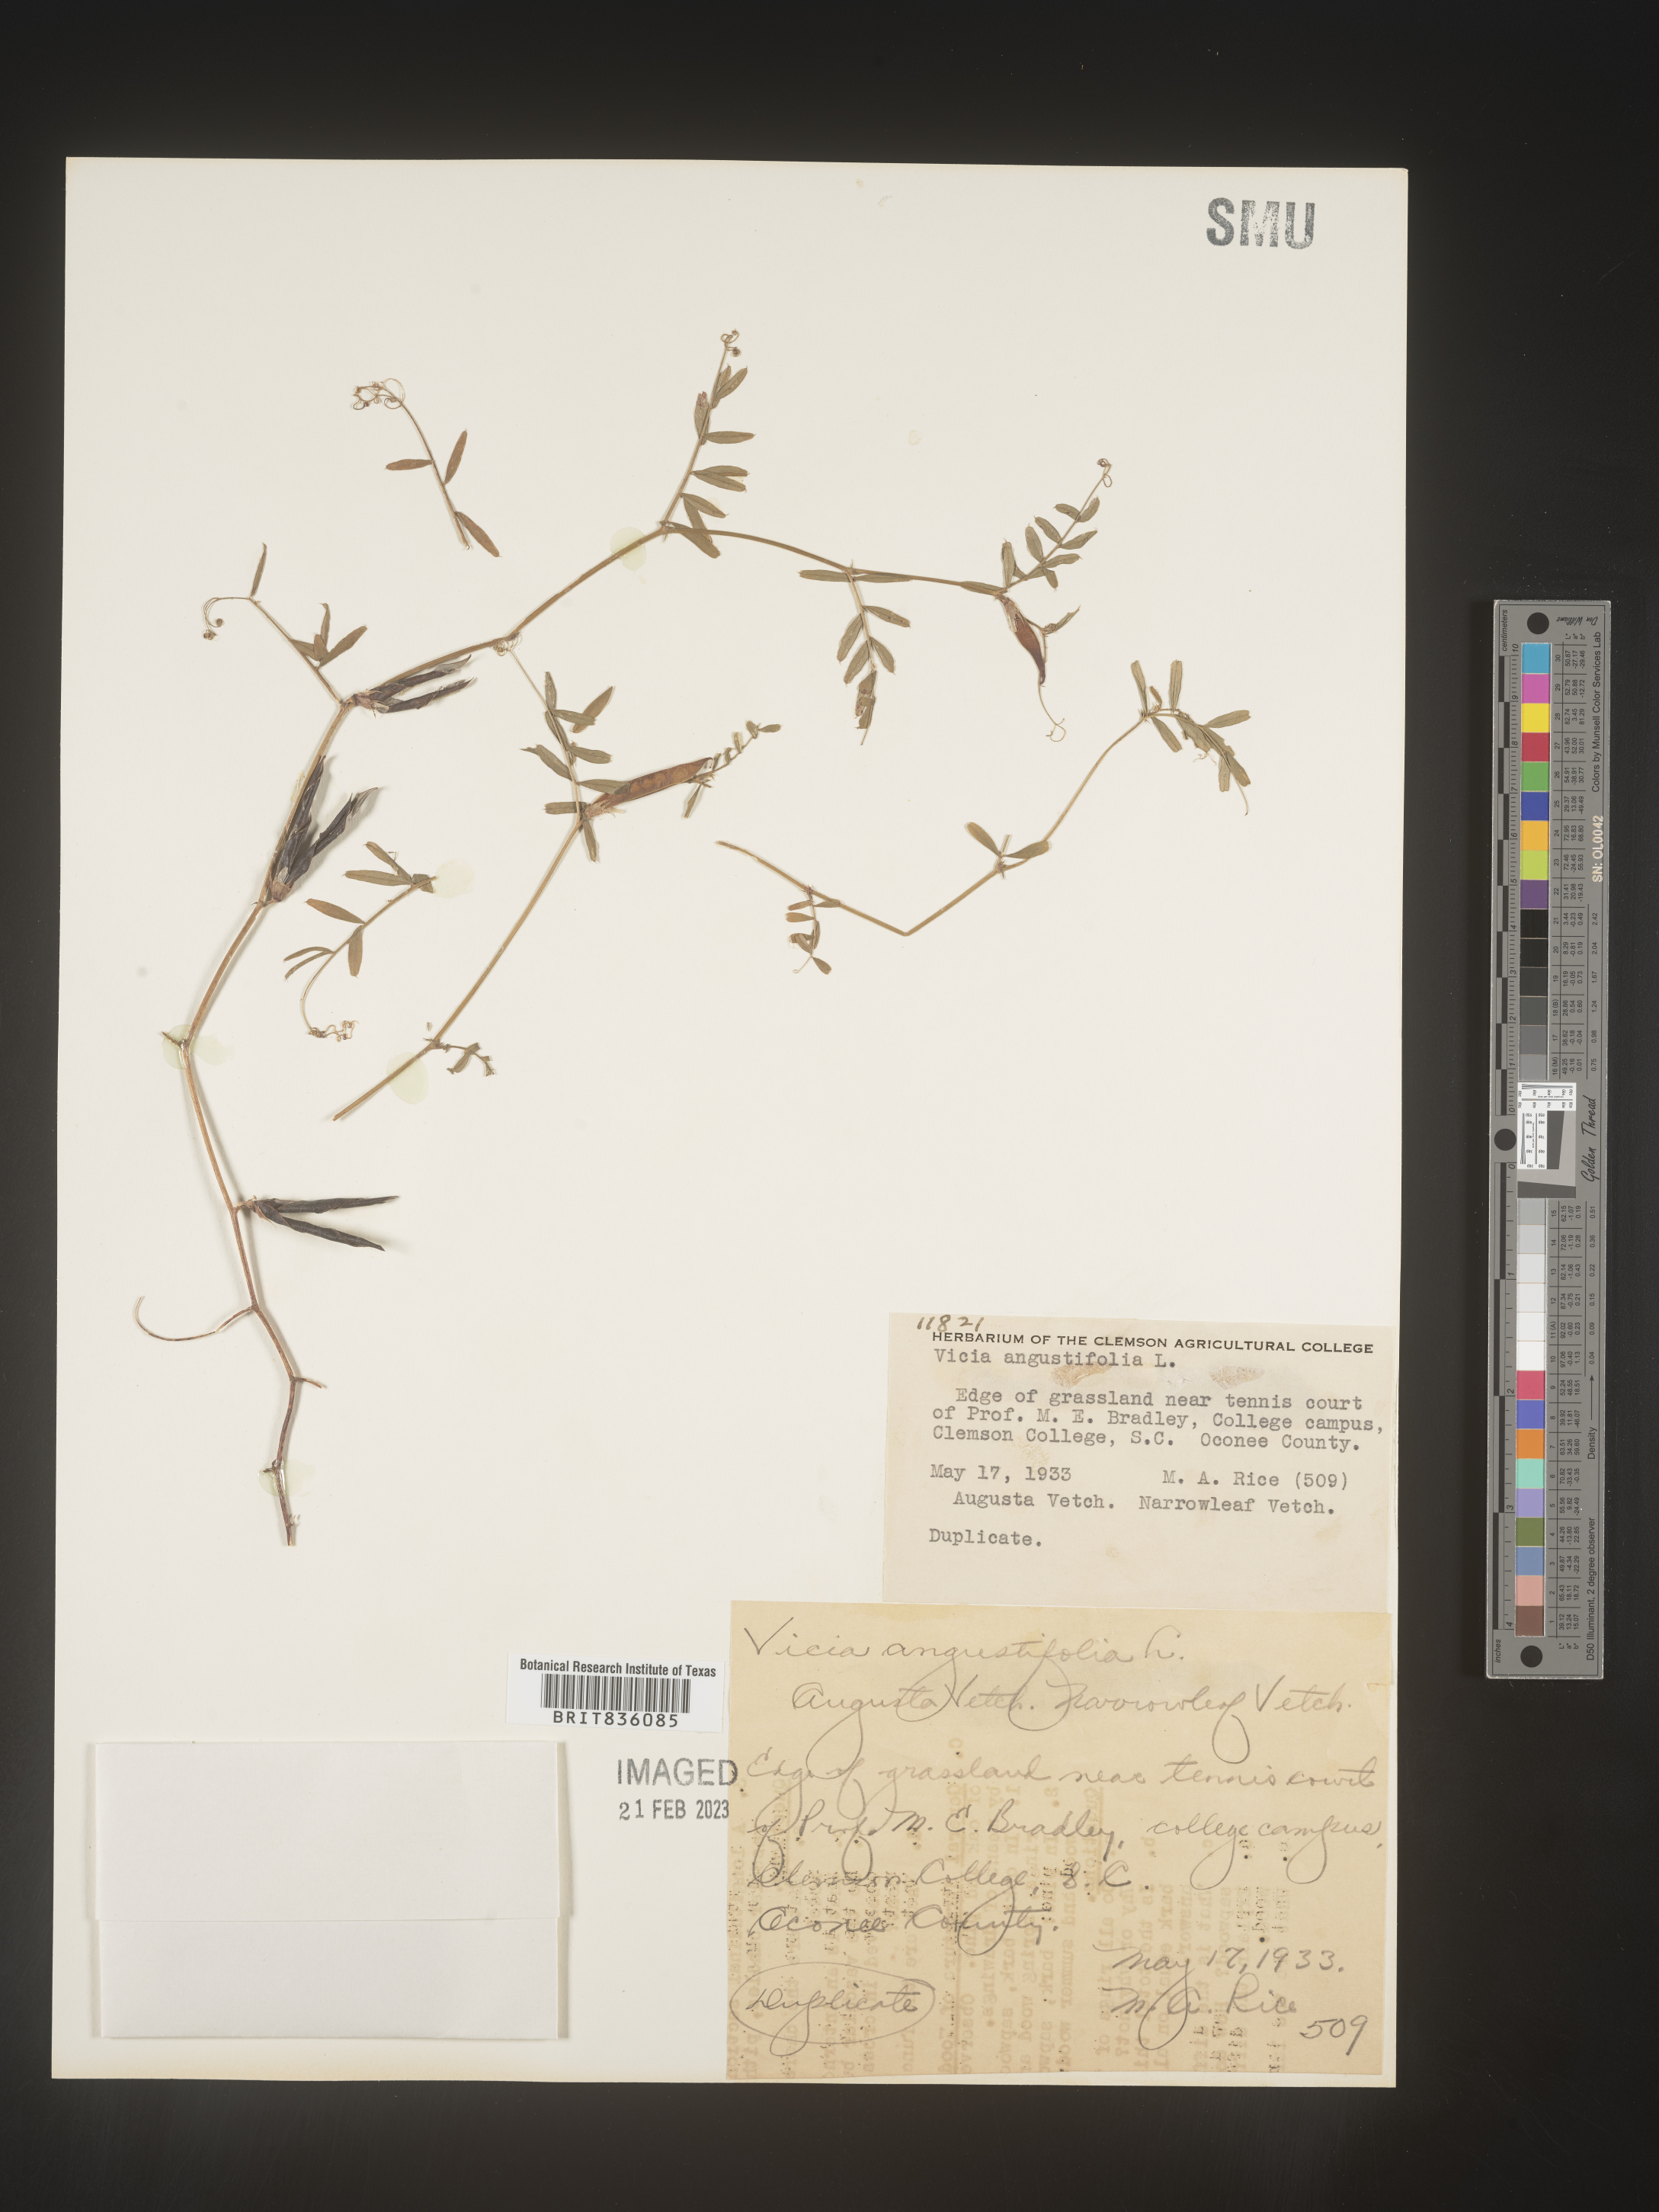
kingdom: Plantae
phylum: Tracheophyta
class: Magnoliopsida
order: Fabales
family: Fabaceae
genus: Vicia
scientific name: Vicia sativa
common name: Garden vetch
